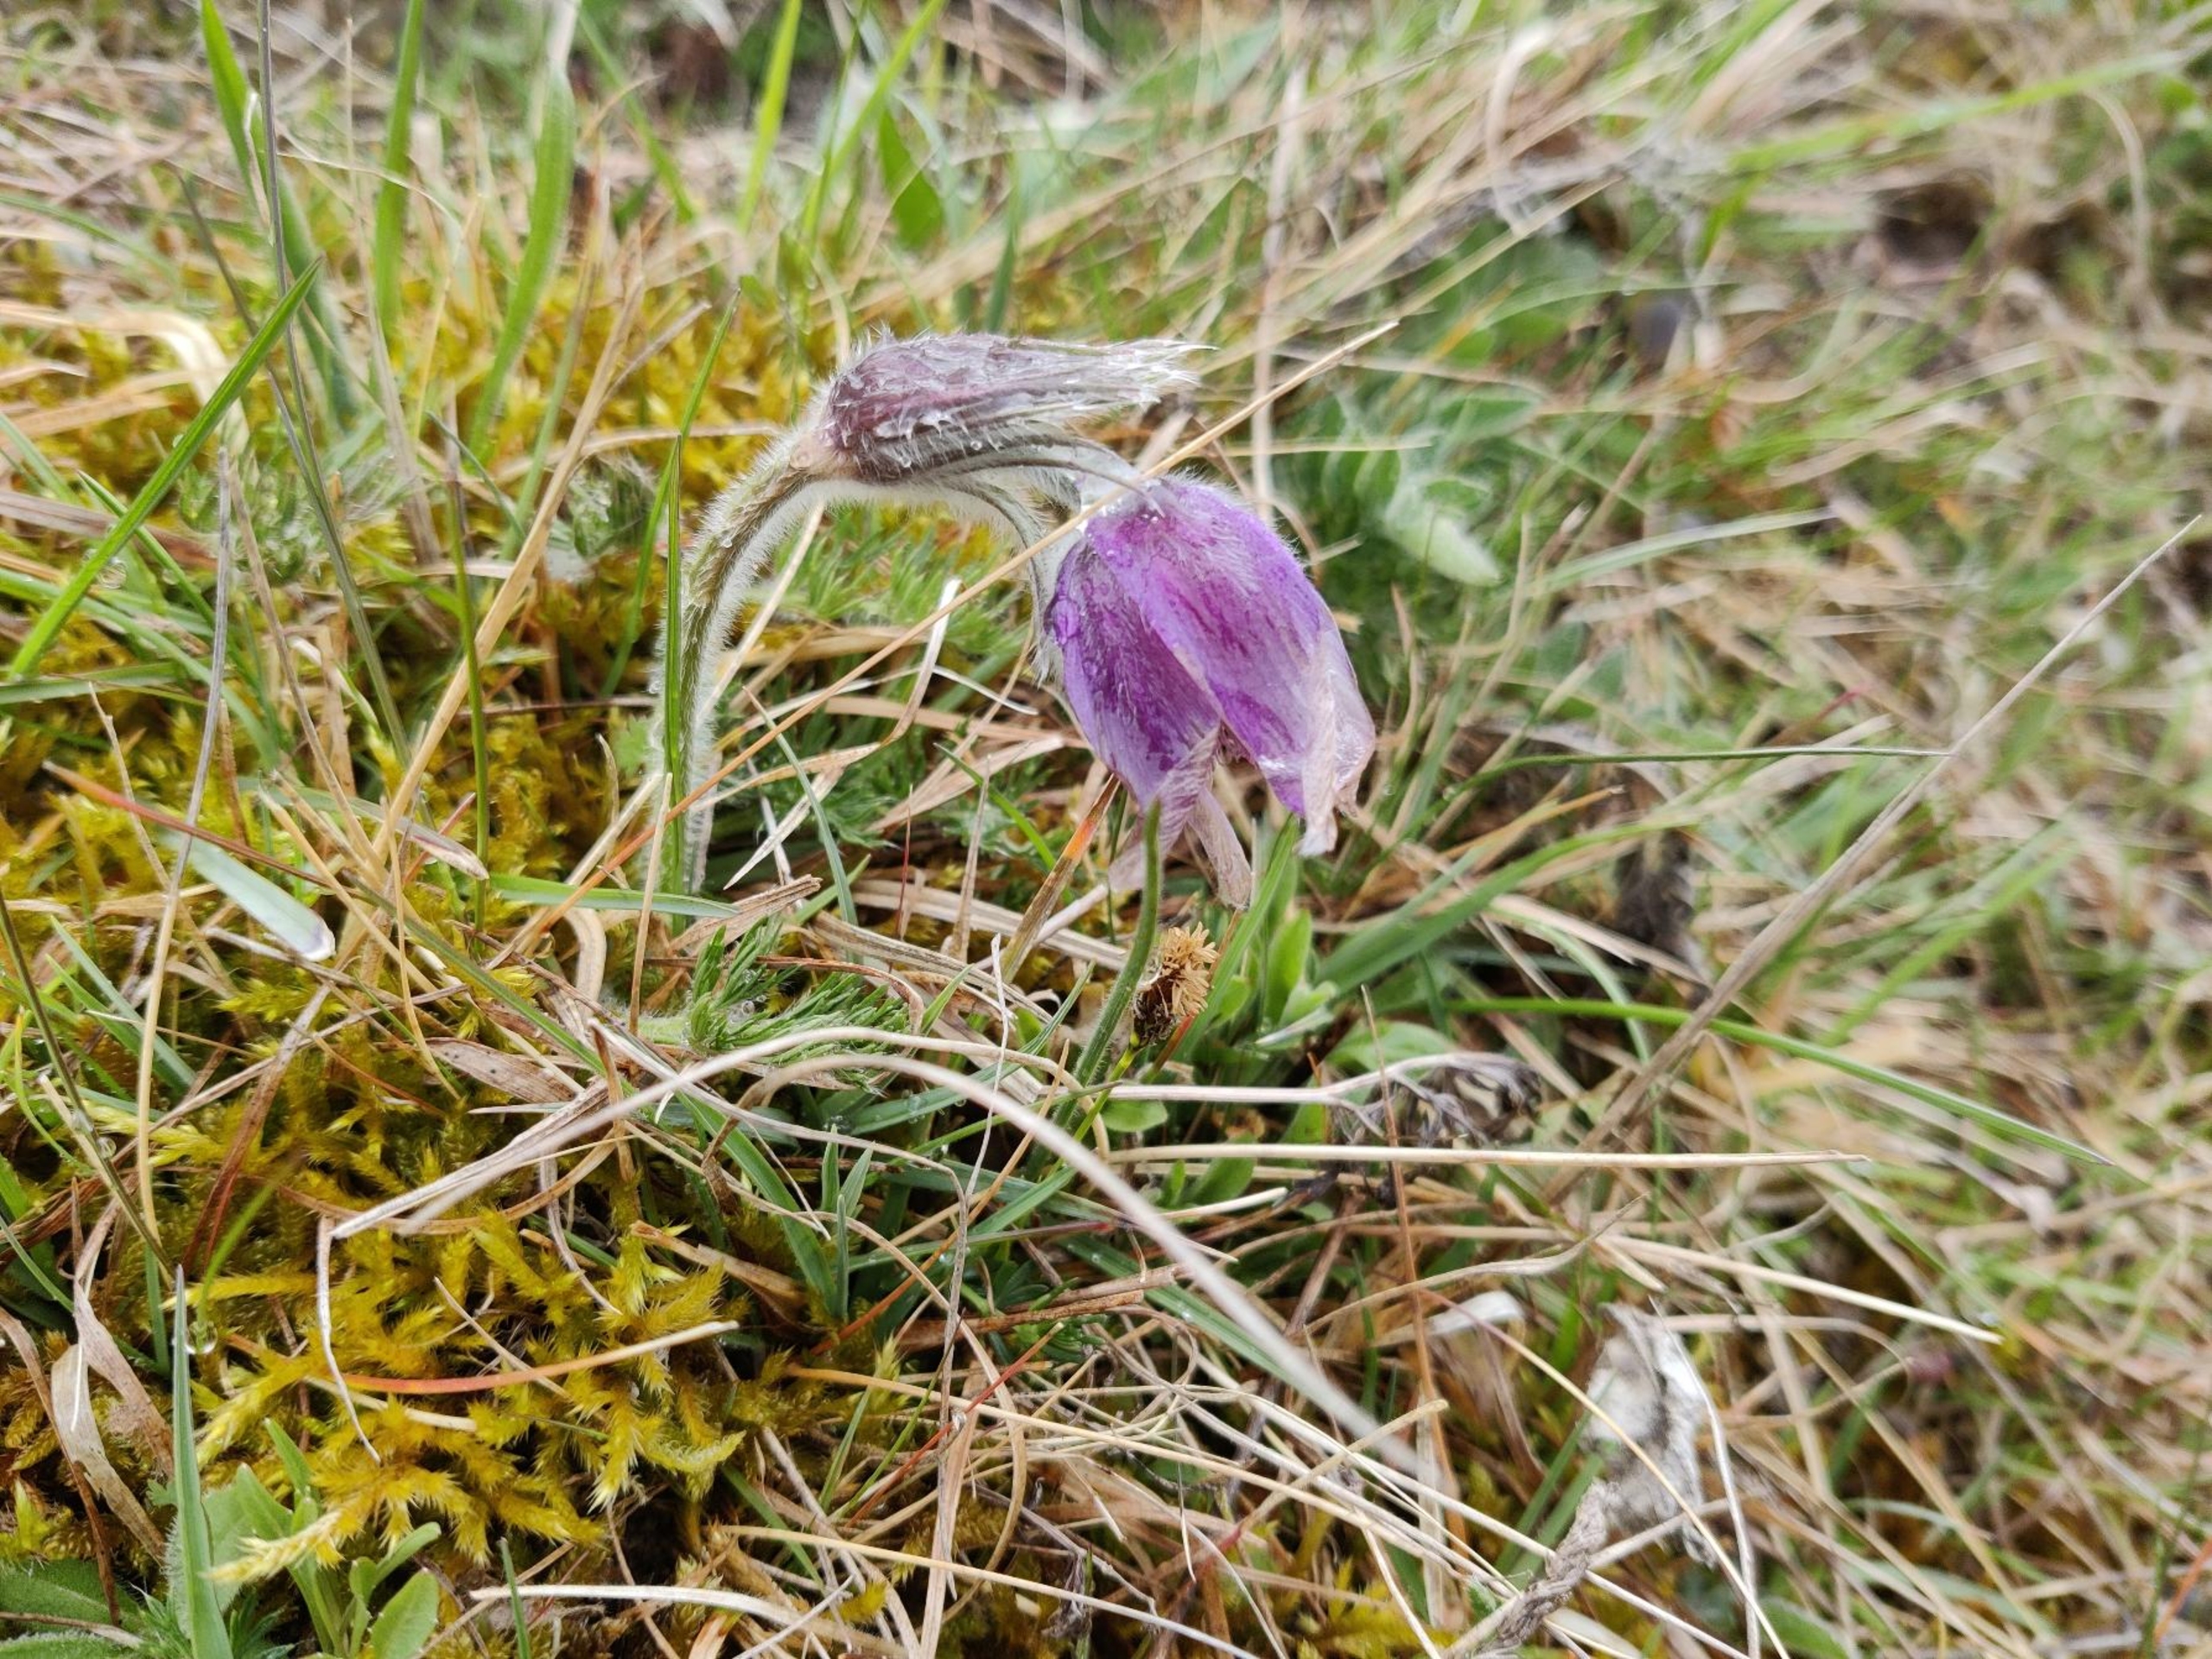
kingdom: Plantae
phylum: Tracheophyta
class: Magnoliopsida
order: Ranunculales
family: Ranunculaceae
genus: Pulsatilla
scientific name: Pulsatilla vulgaris
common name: Opret kobjælde
